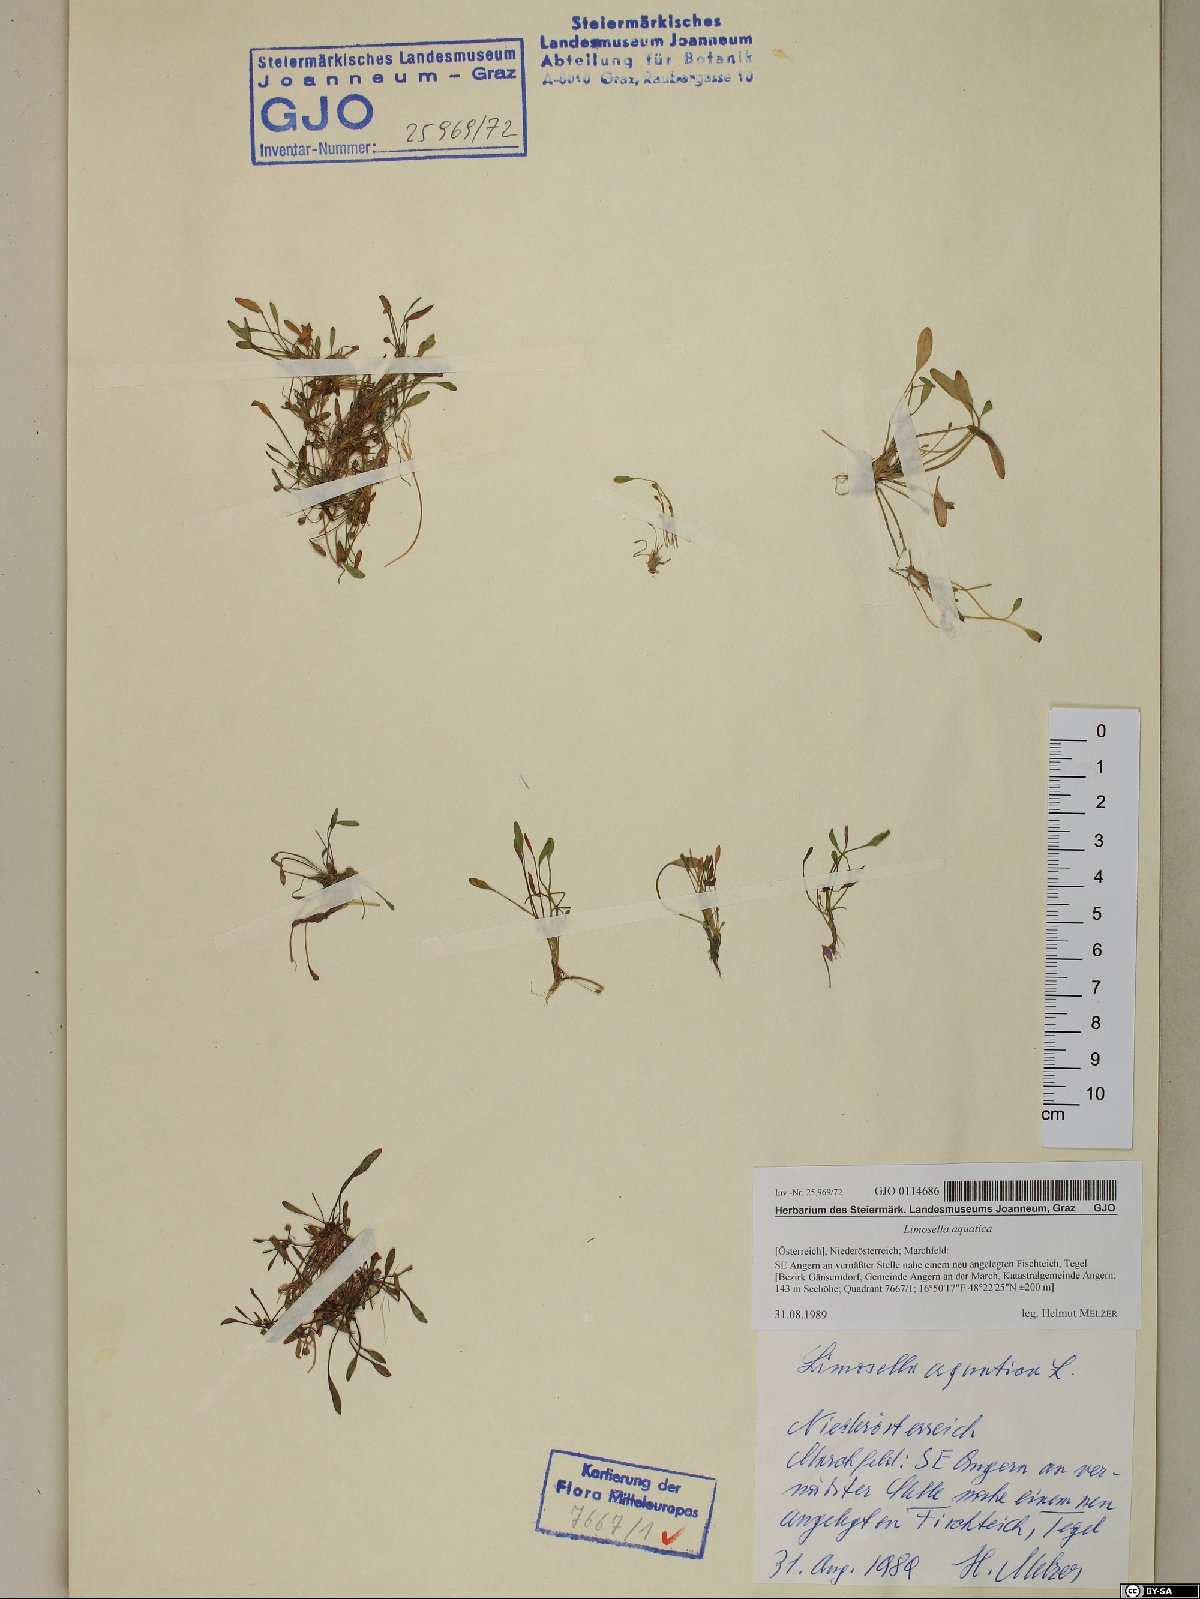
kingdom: Plantae
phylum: Tracheophyta
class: Magnoliopsida
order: Lamiales
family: Scrophulariaceae
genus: Limosella
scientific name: Limosella aquatica
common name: Mudwort
